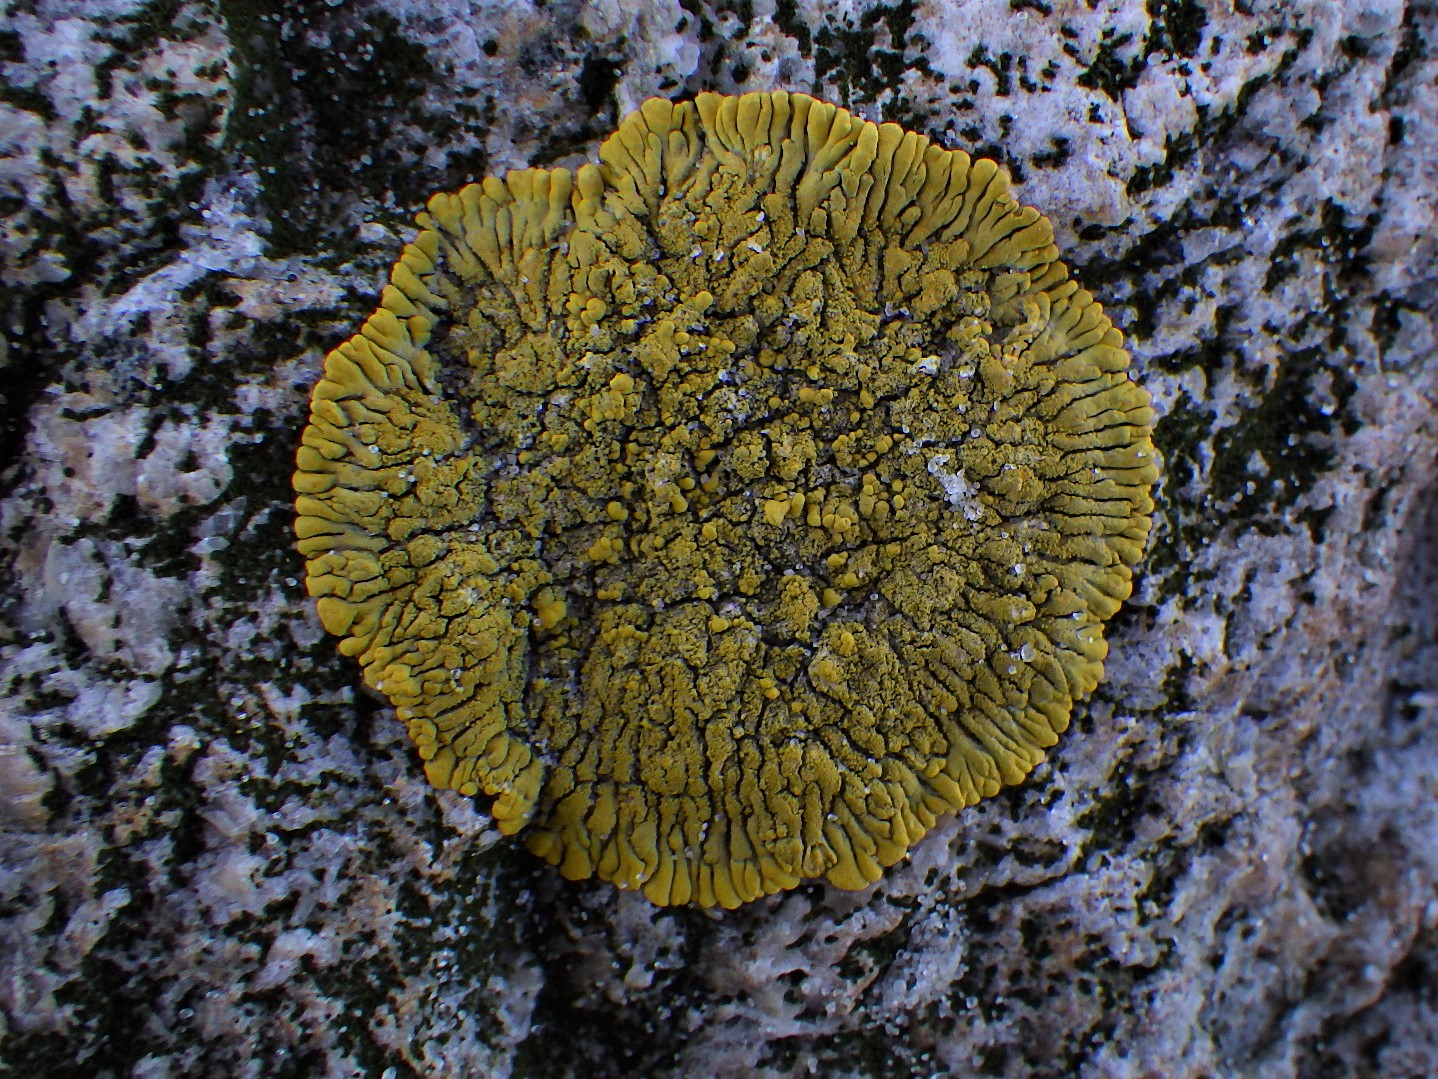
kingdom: Fungi
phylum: Ascomycota
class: Lecanoromycetes
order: Teloschistales
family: Teloschistaceae
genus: Verrucoplaca
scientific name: Verrucoplaca verruculifera
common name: koldkyst-orangelav
